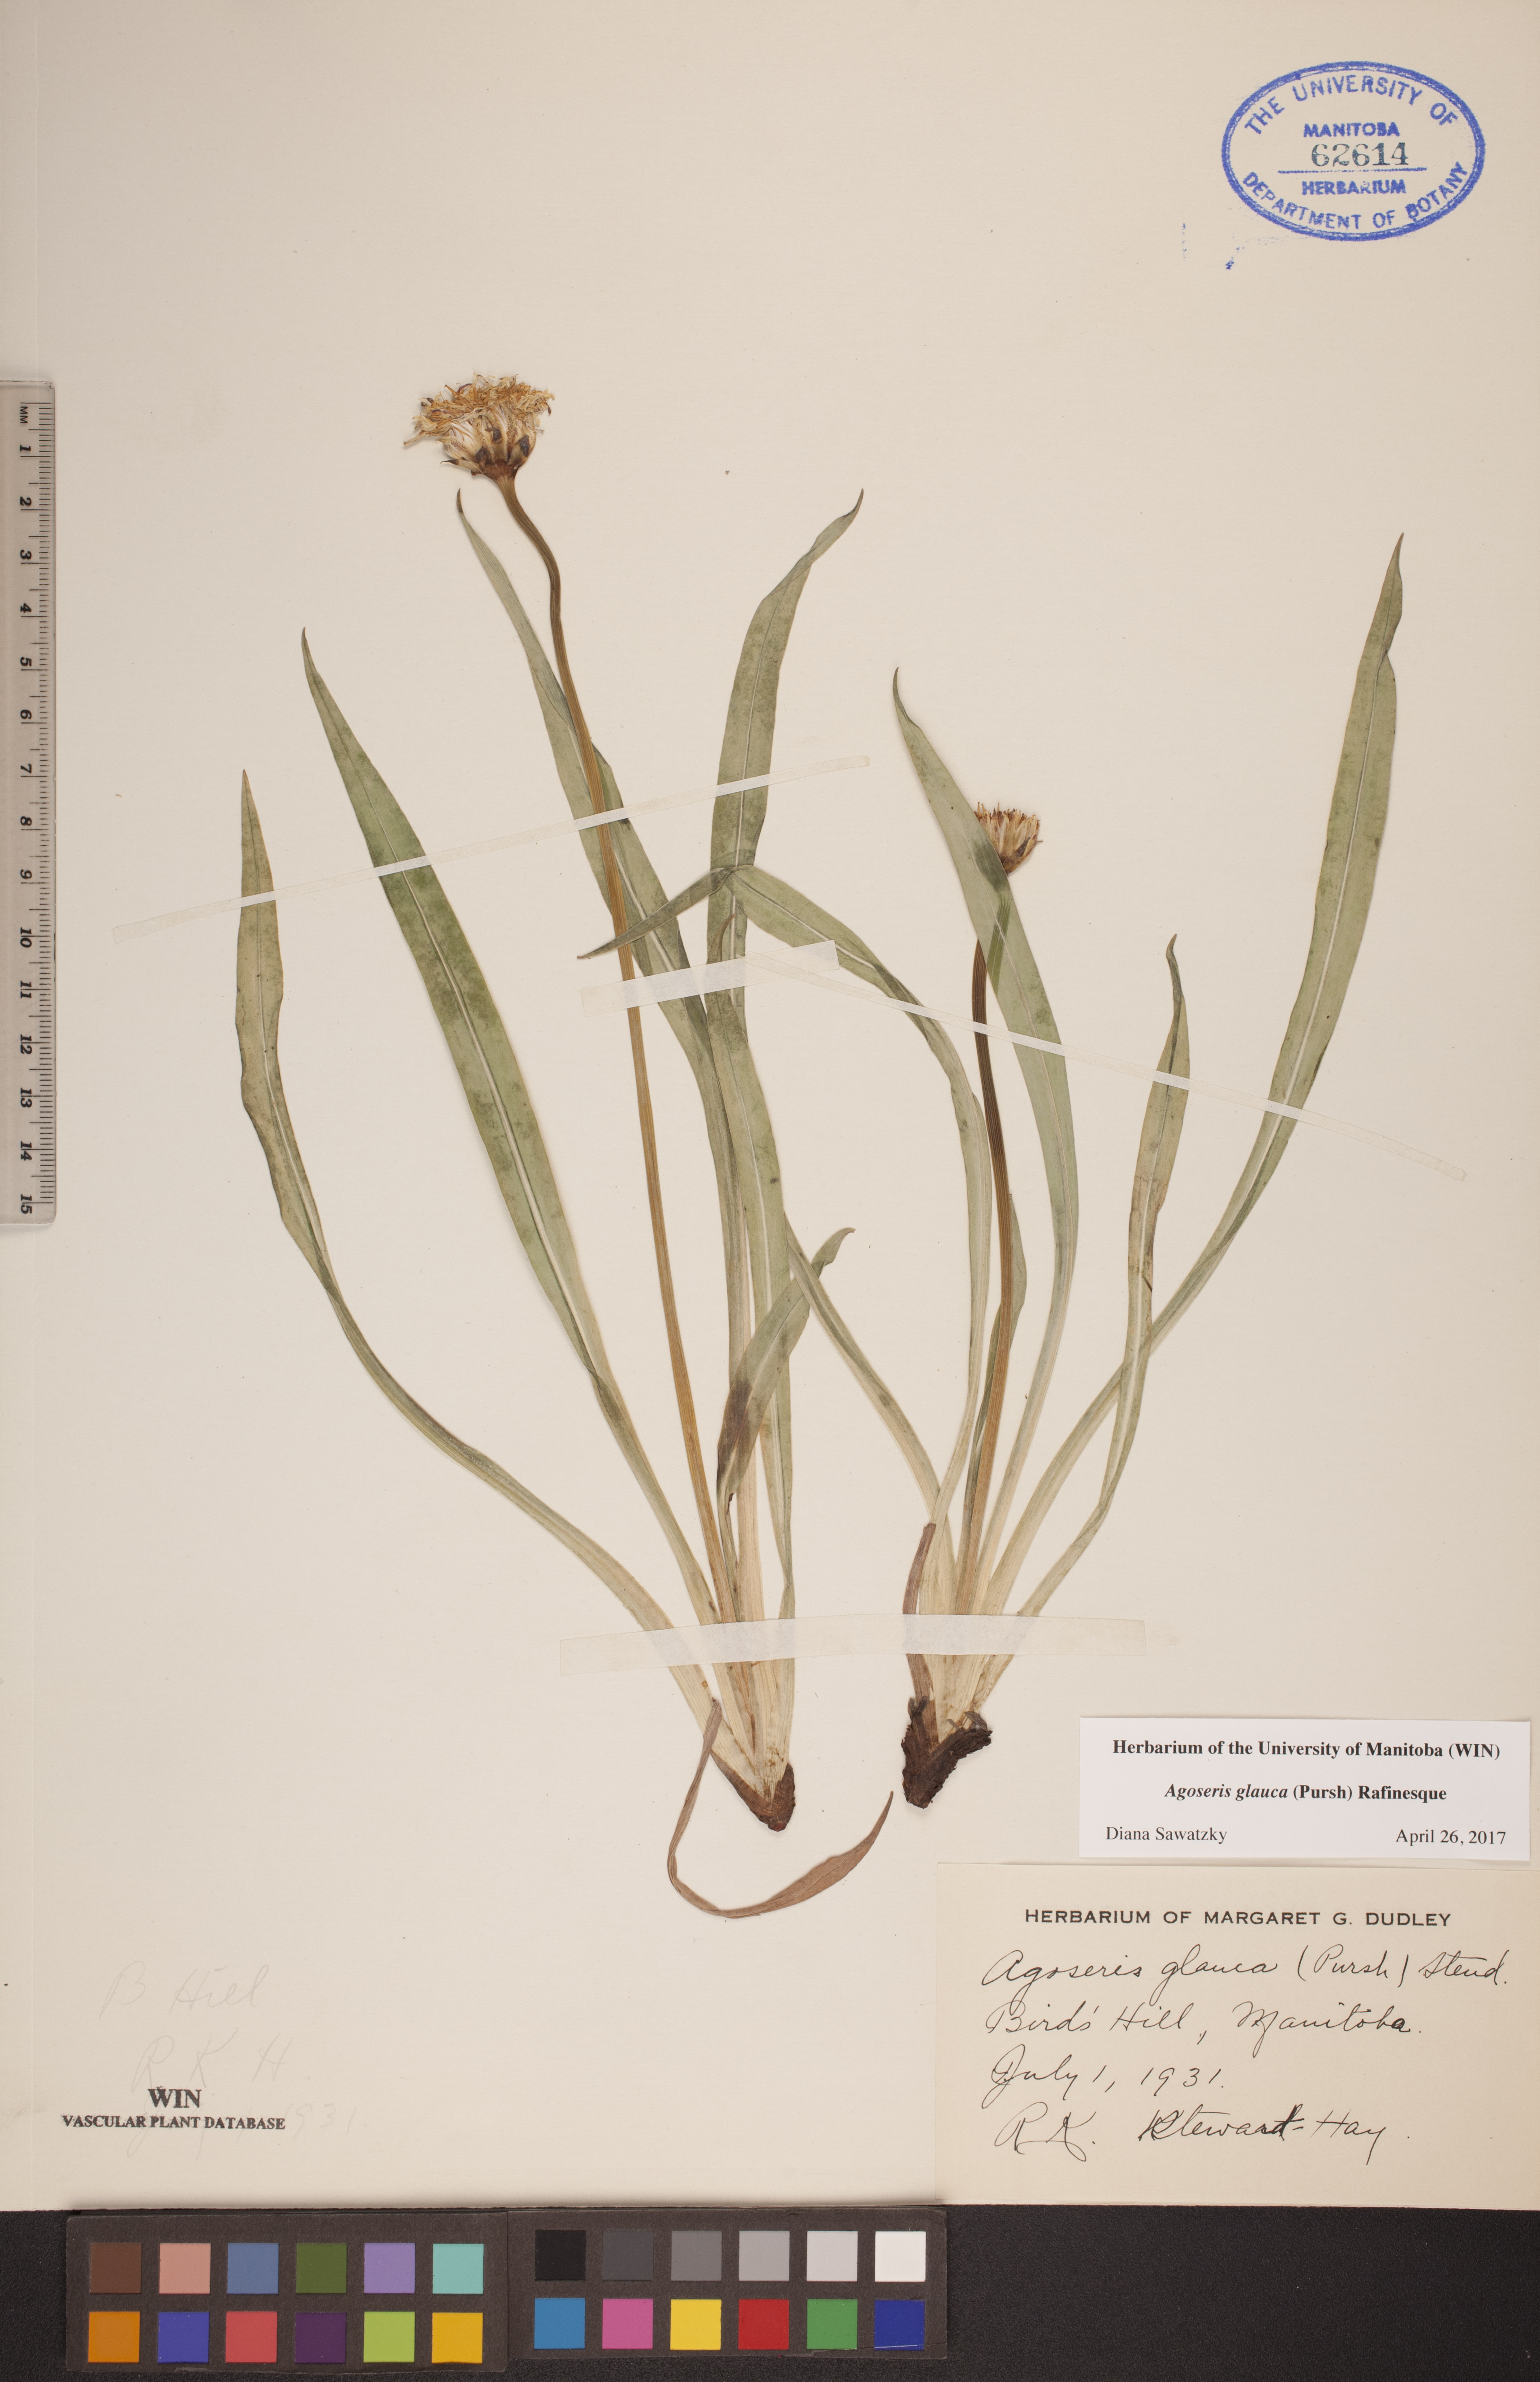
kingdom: Plantae
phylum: Tracheophyta
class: Magnoliopsida
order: Asterales
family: Asteraceae
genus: Agoseris
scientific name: Agoseris glauca
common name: Prairie agoseris
